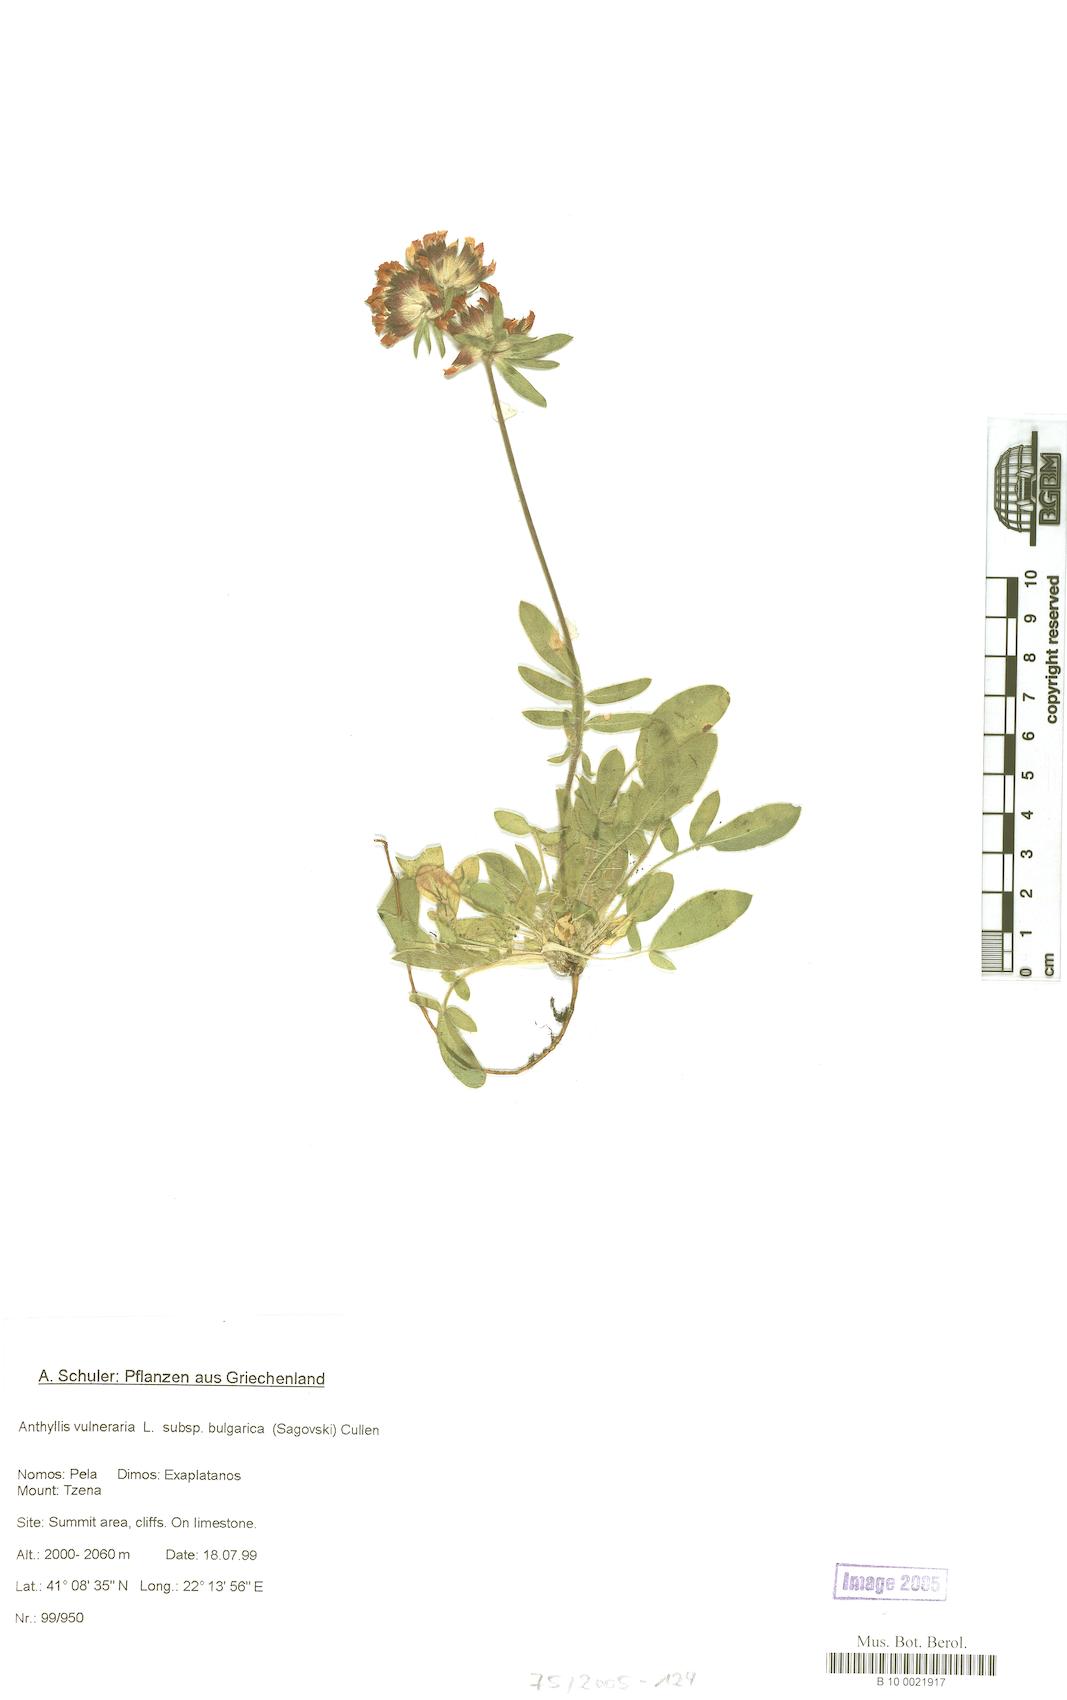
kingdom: Plantae
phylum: Tracheophyta
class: Magnoliopsida
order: Fabales
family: Fabaceae
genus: Anthyllis
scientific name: Anthyllis vulneraria
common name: Kidney vetch
